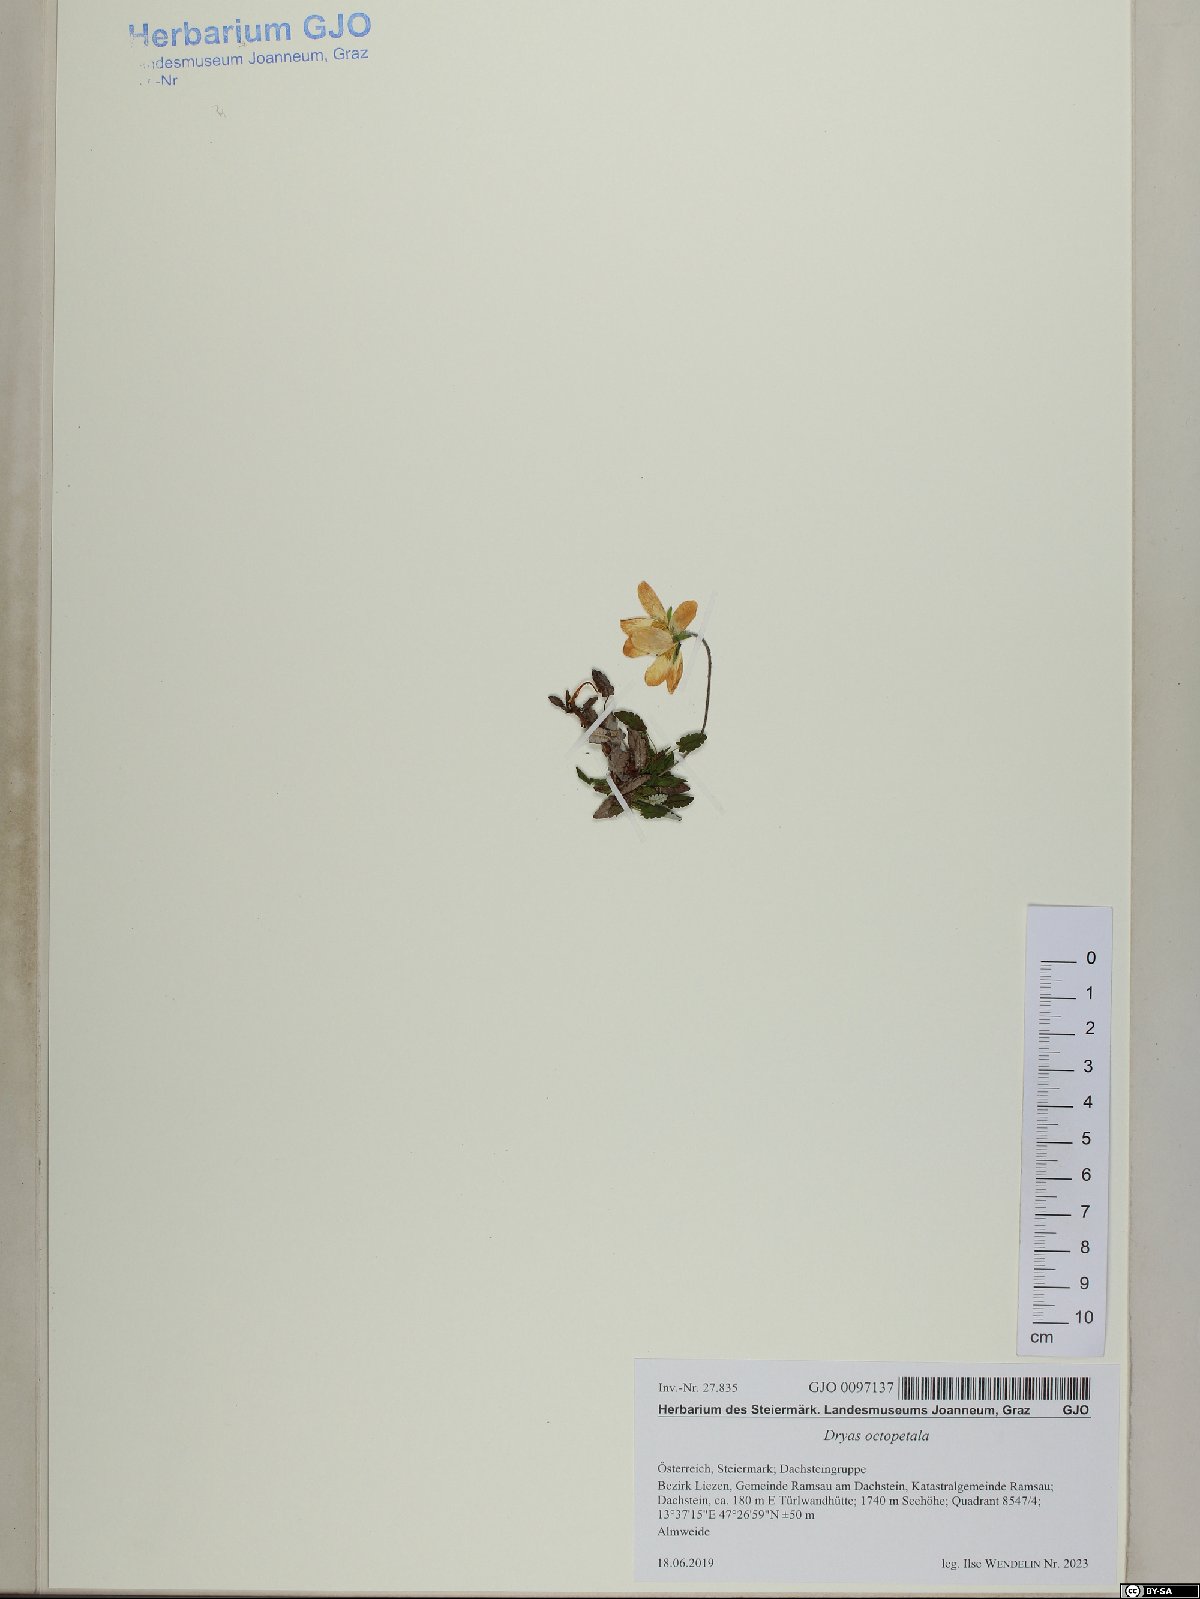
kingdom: Plantae
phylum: Tracheophyta
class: Magnoliopsida
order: Rosales
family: Rosaceae
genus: Dryas
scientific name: Dryas octopetala
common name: Eight-petal mountain-avens
